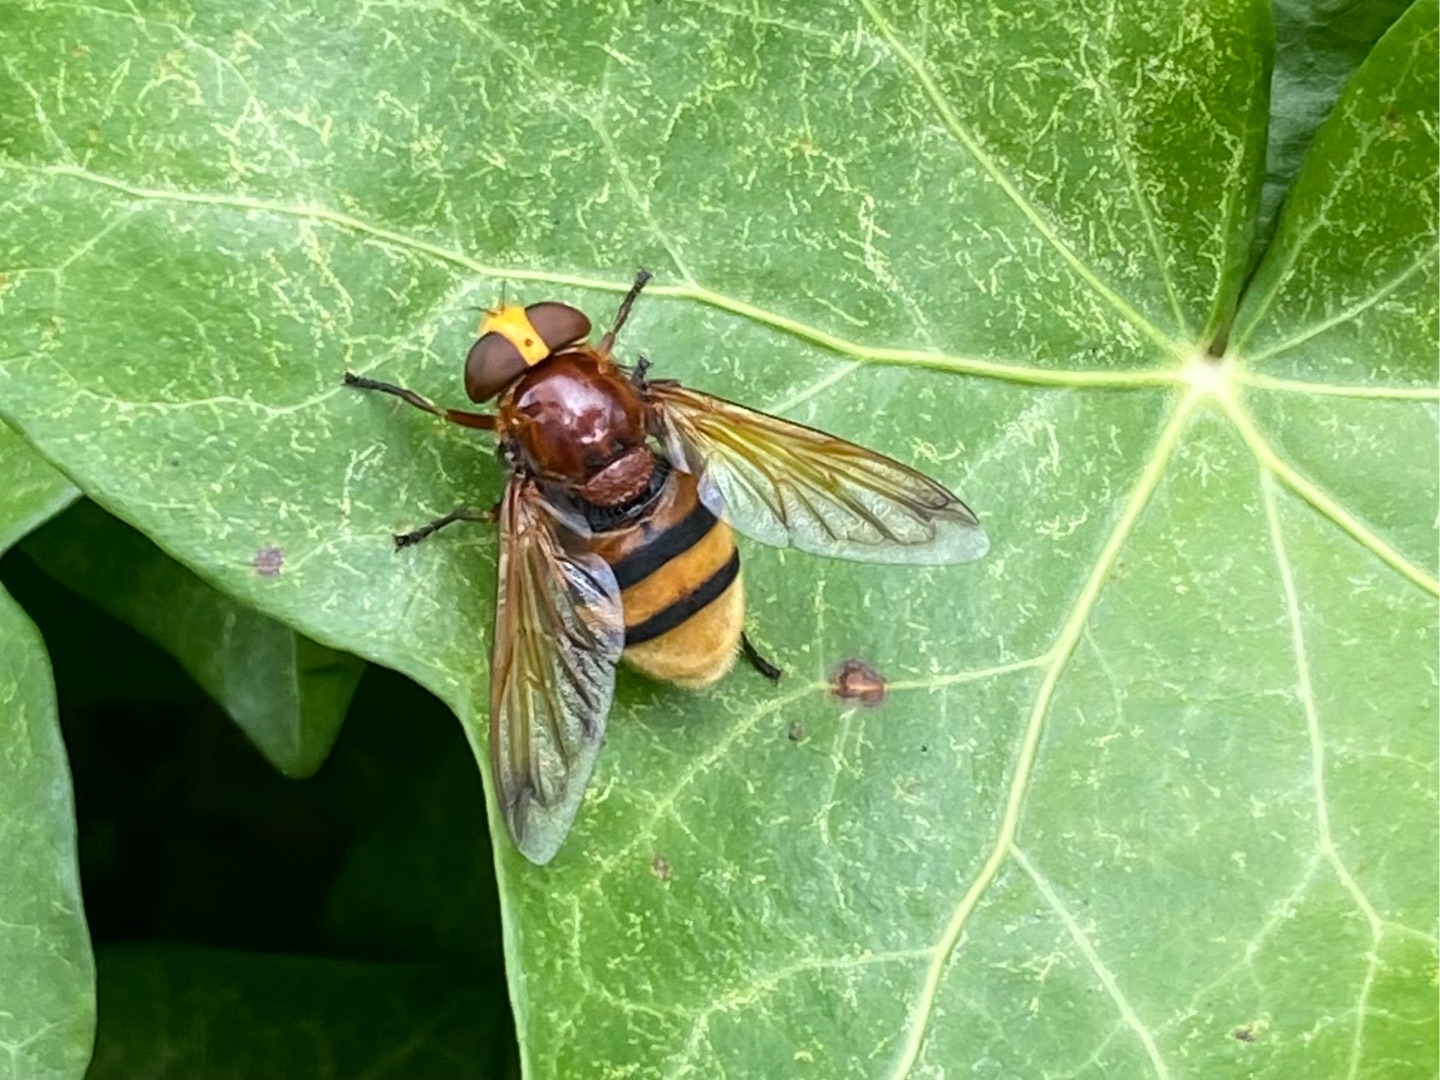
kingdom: Animalia
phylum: Arthropoda
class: Insecta
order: Diptera
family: Syrphidae
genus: Volucella
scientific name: Volucella zonaria
